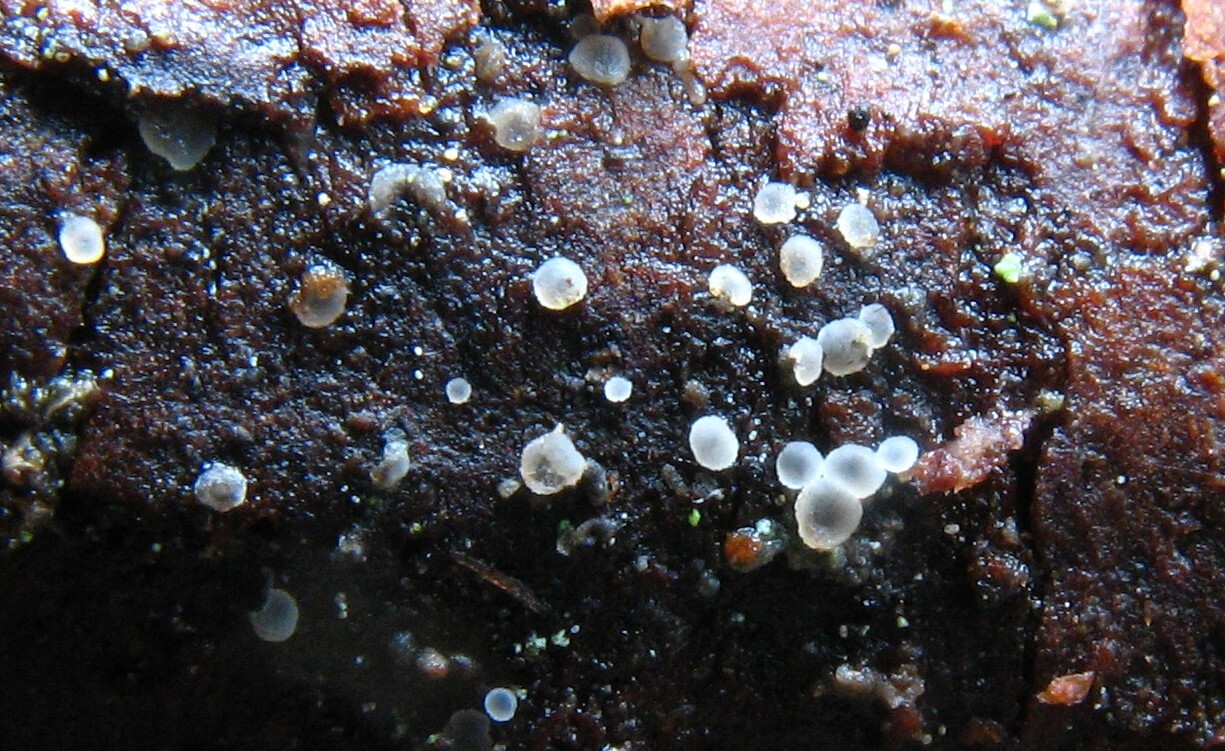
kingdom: Fungi
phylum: Ascomycota
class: Leotiomycetes
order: Helotiales
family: Mollisiaceae
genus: Mollisia
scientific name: Mollisia
